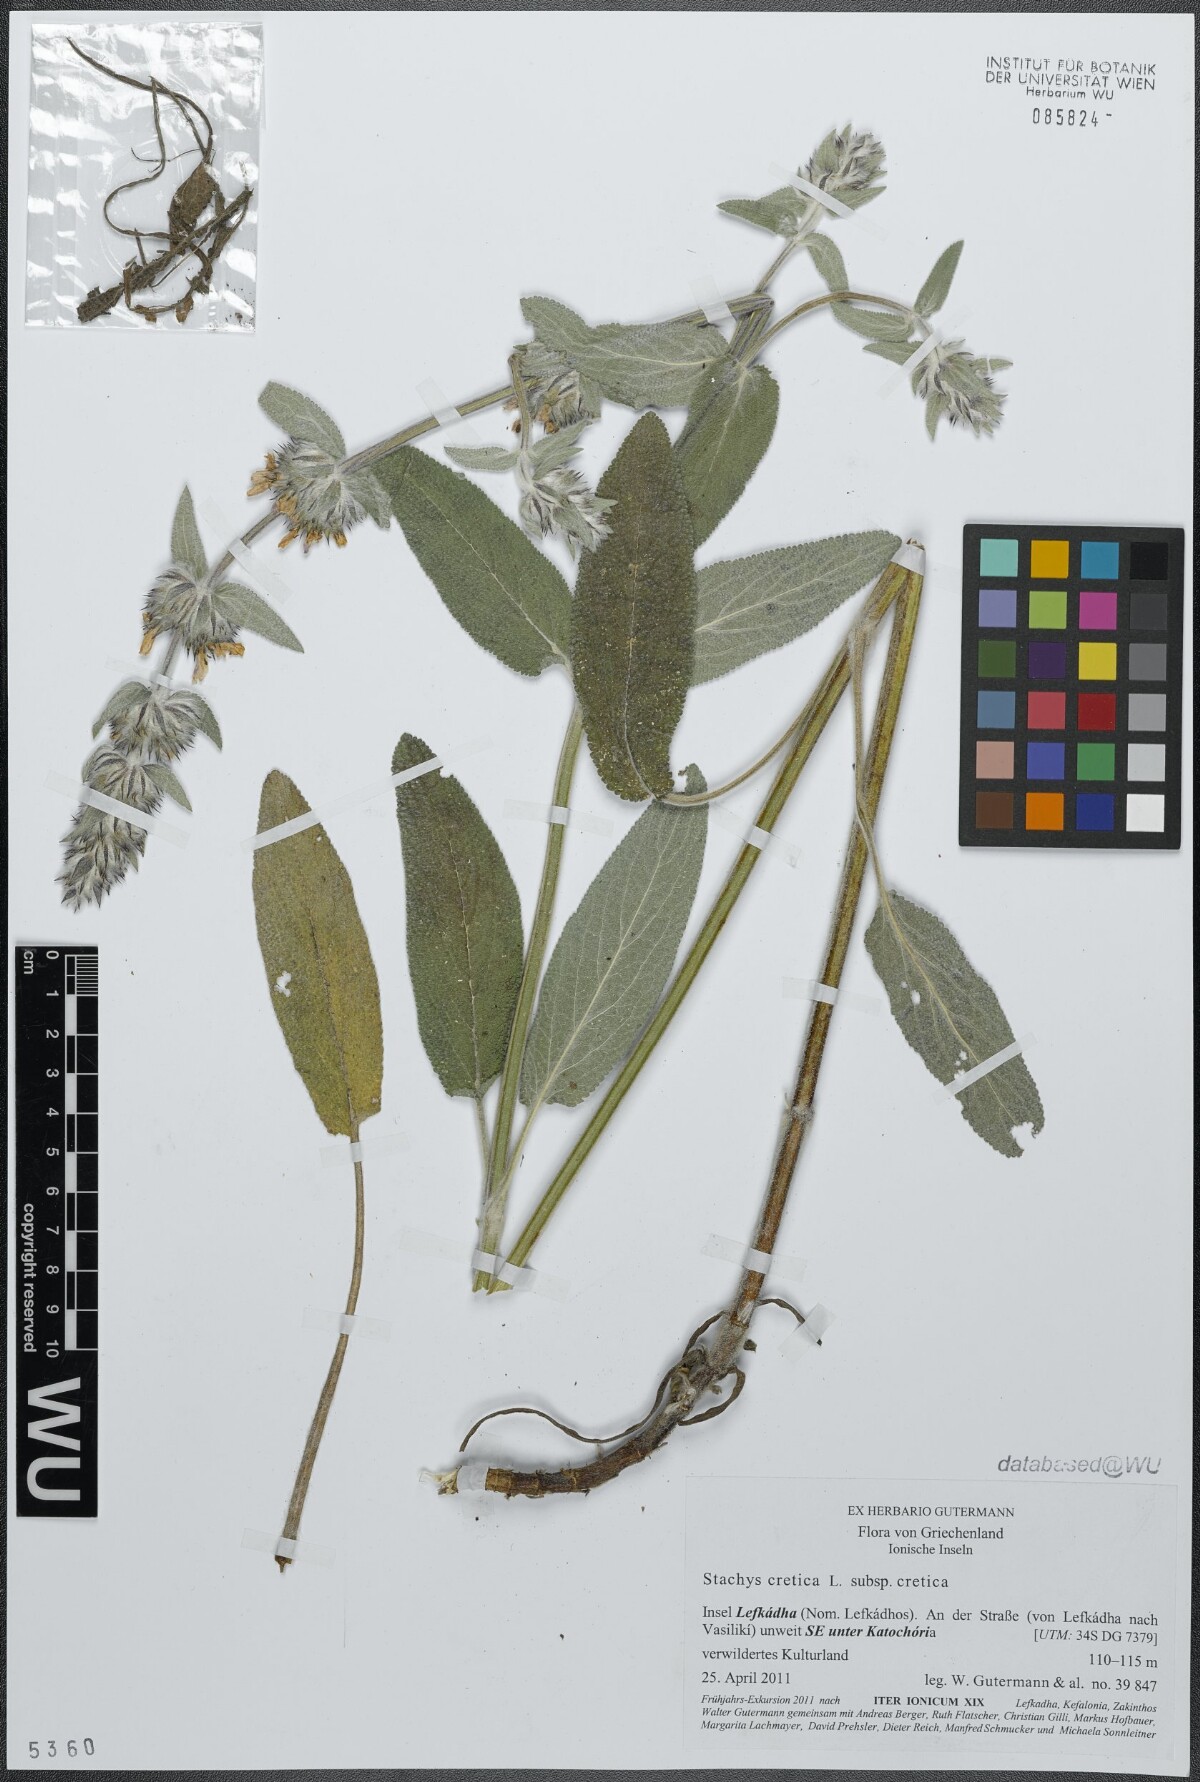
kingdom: Plantae
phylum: Tracheophyta
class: Magnoliopsida
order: Lamiales
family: Lamiaceae
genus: Stachys
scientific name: Stachys cretica
